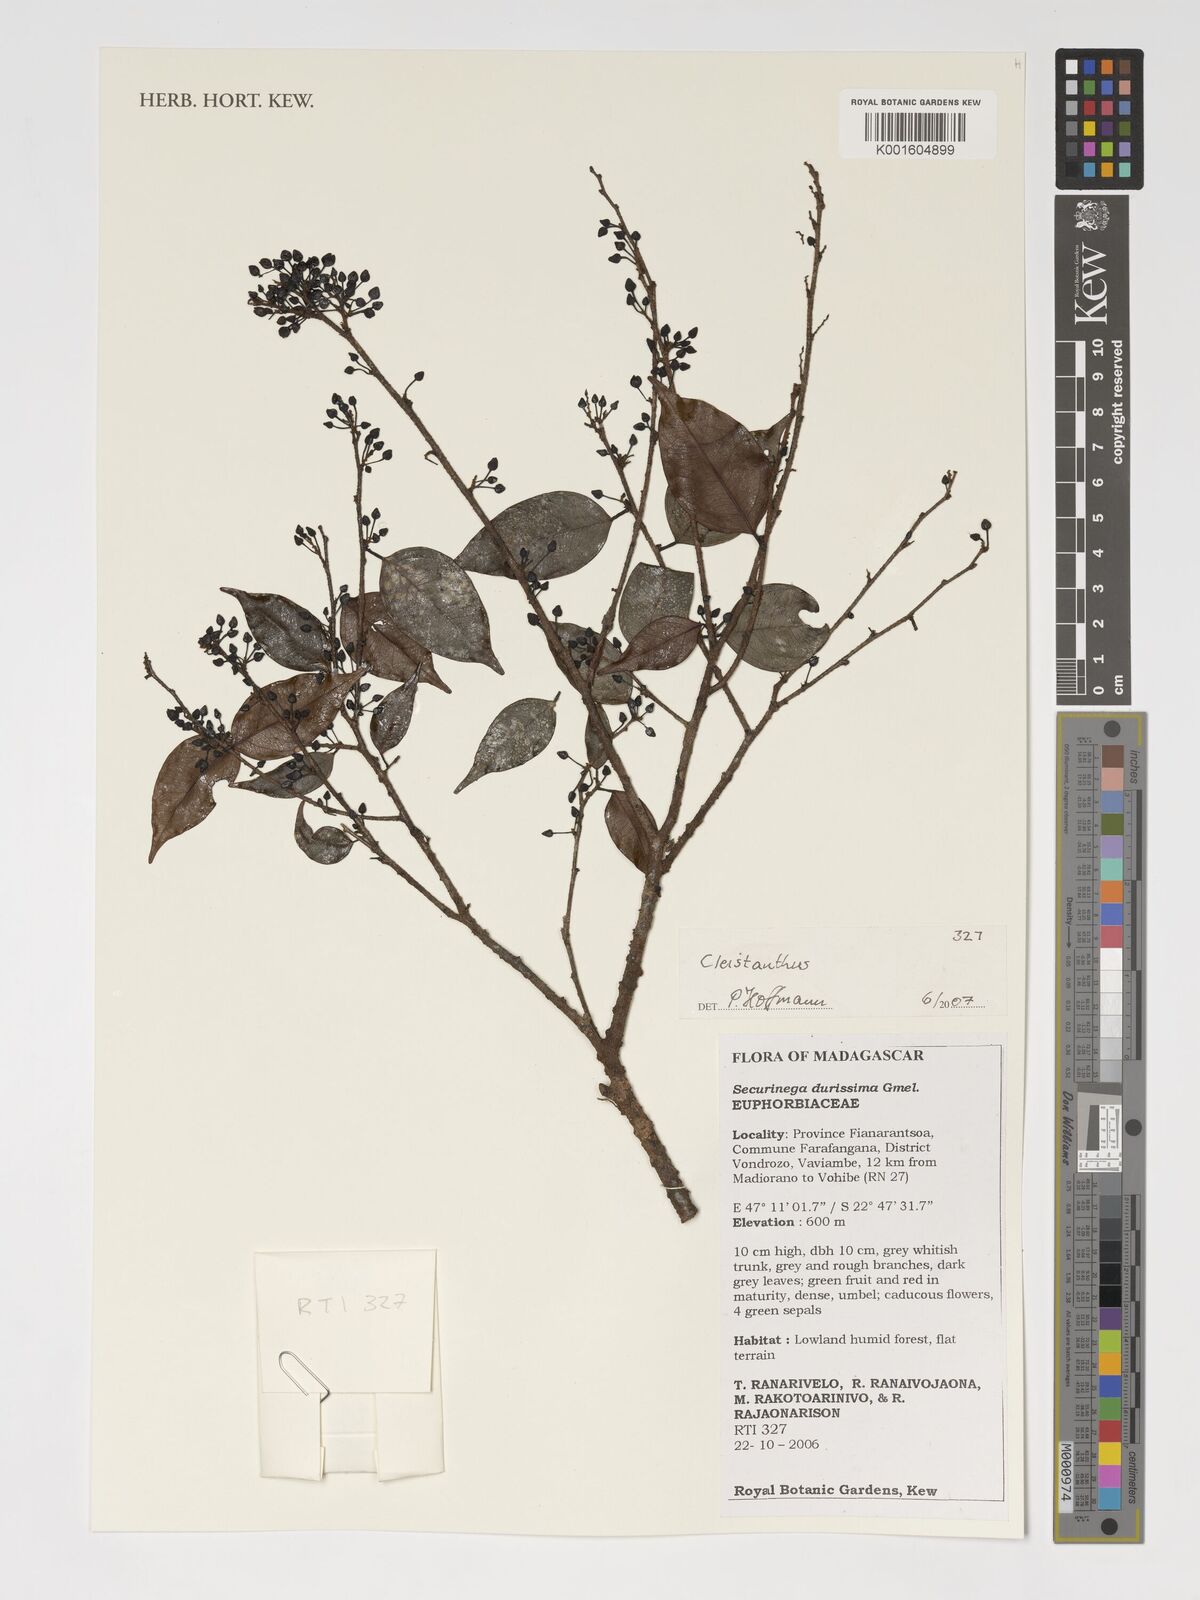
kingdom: Plantae
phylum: Tracheophyta
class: Magnoliopsida
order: Malpighiales
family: Phyllanthaceae
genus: Cleistanthus
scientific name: Cleistanthus
